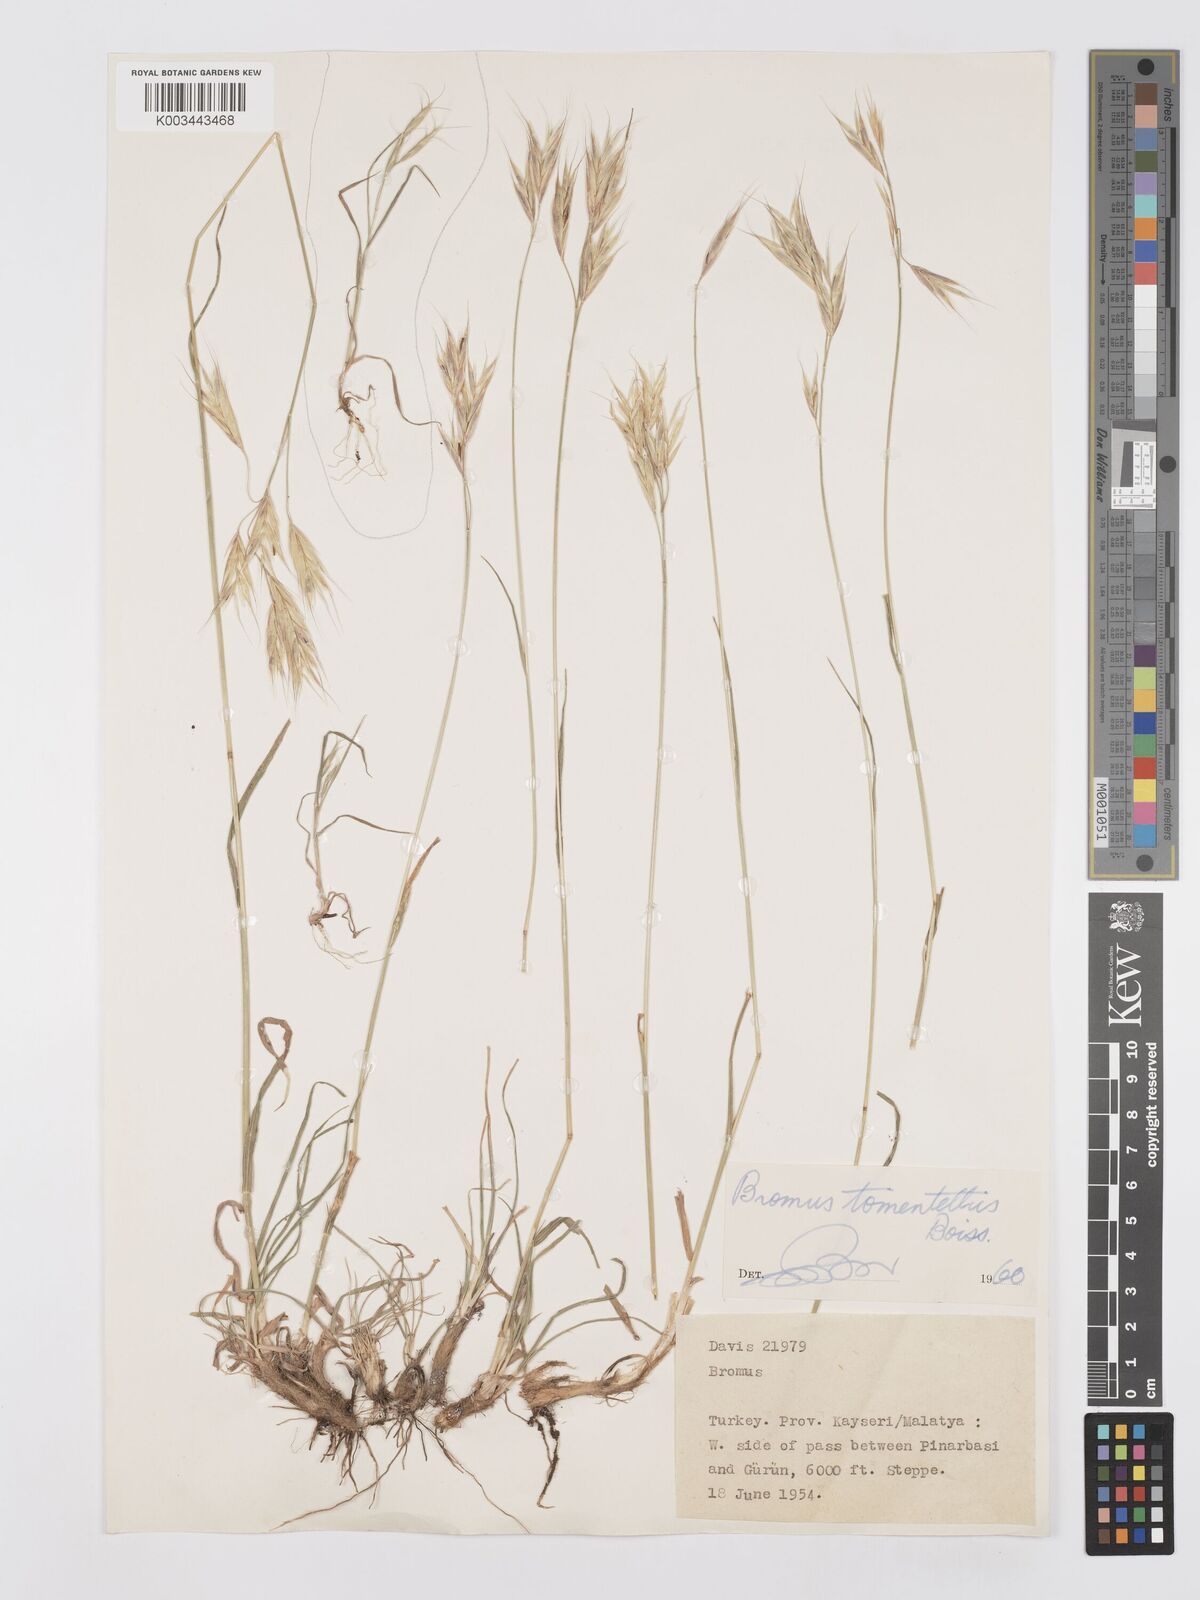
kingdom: Plantae
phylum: Tracheophyta
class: Liliopsida
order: Poales
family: Poaceae
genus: Bromus
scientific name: Bromus tomentellus
